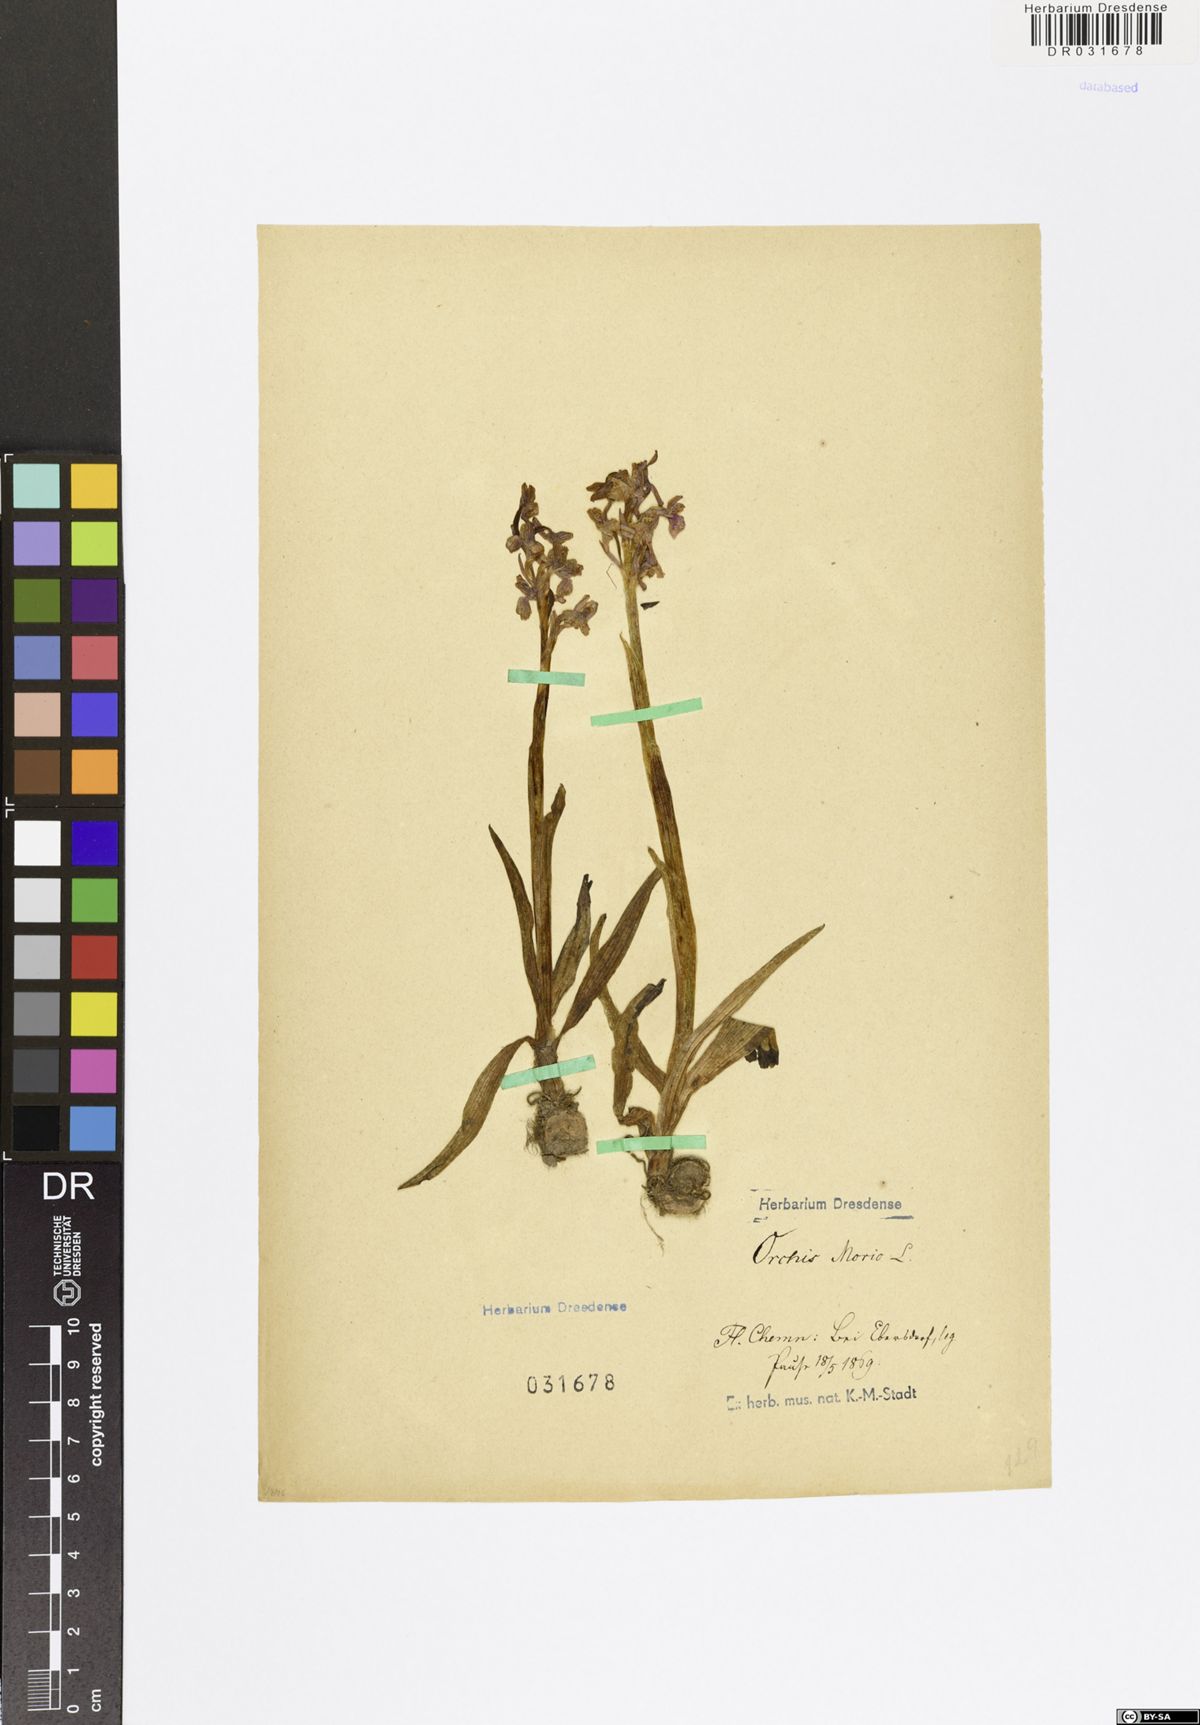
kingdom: Plantae
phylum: Tracheophyta
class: Liliopsida
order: Asparagales
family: Orchidaceae
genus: Anacamptis
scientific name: Anacamptis morio
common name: Green-winged orchid
